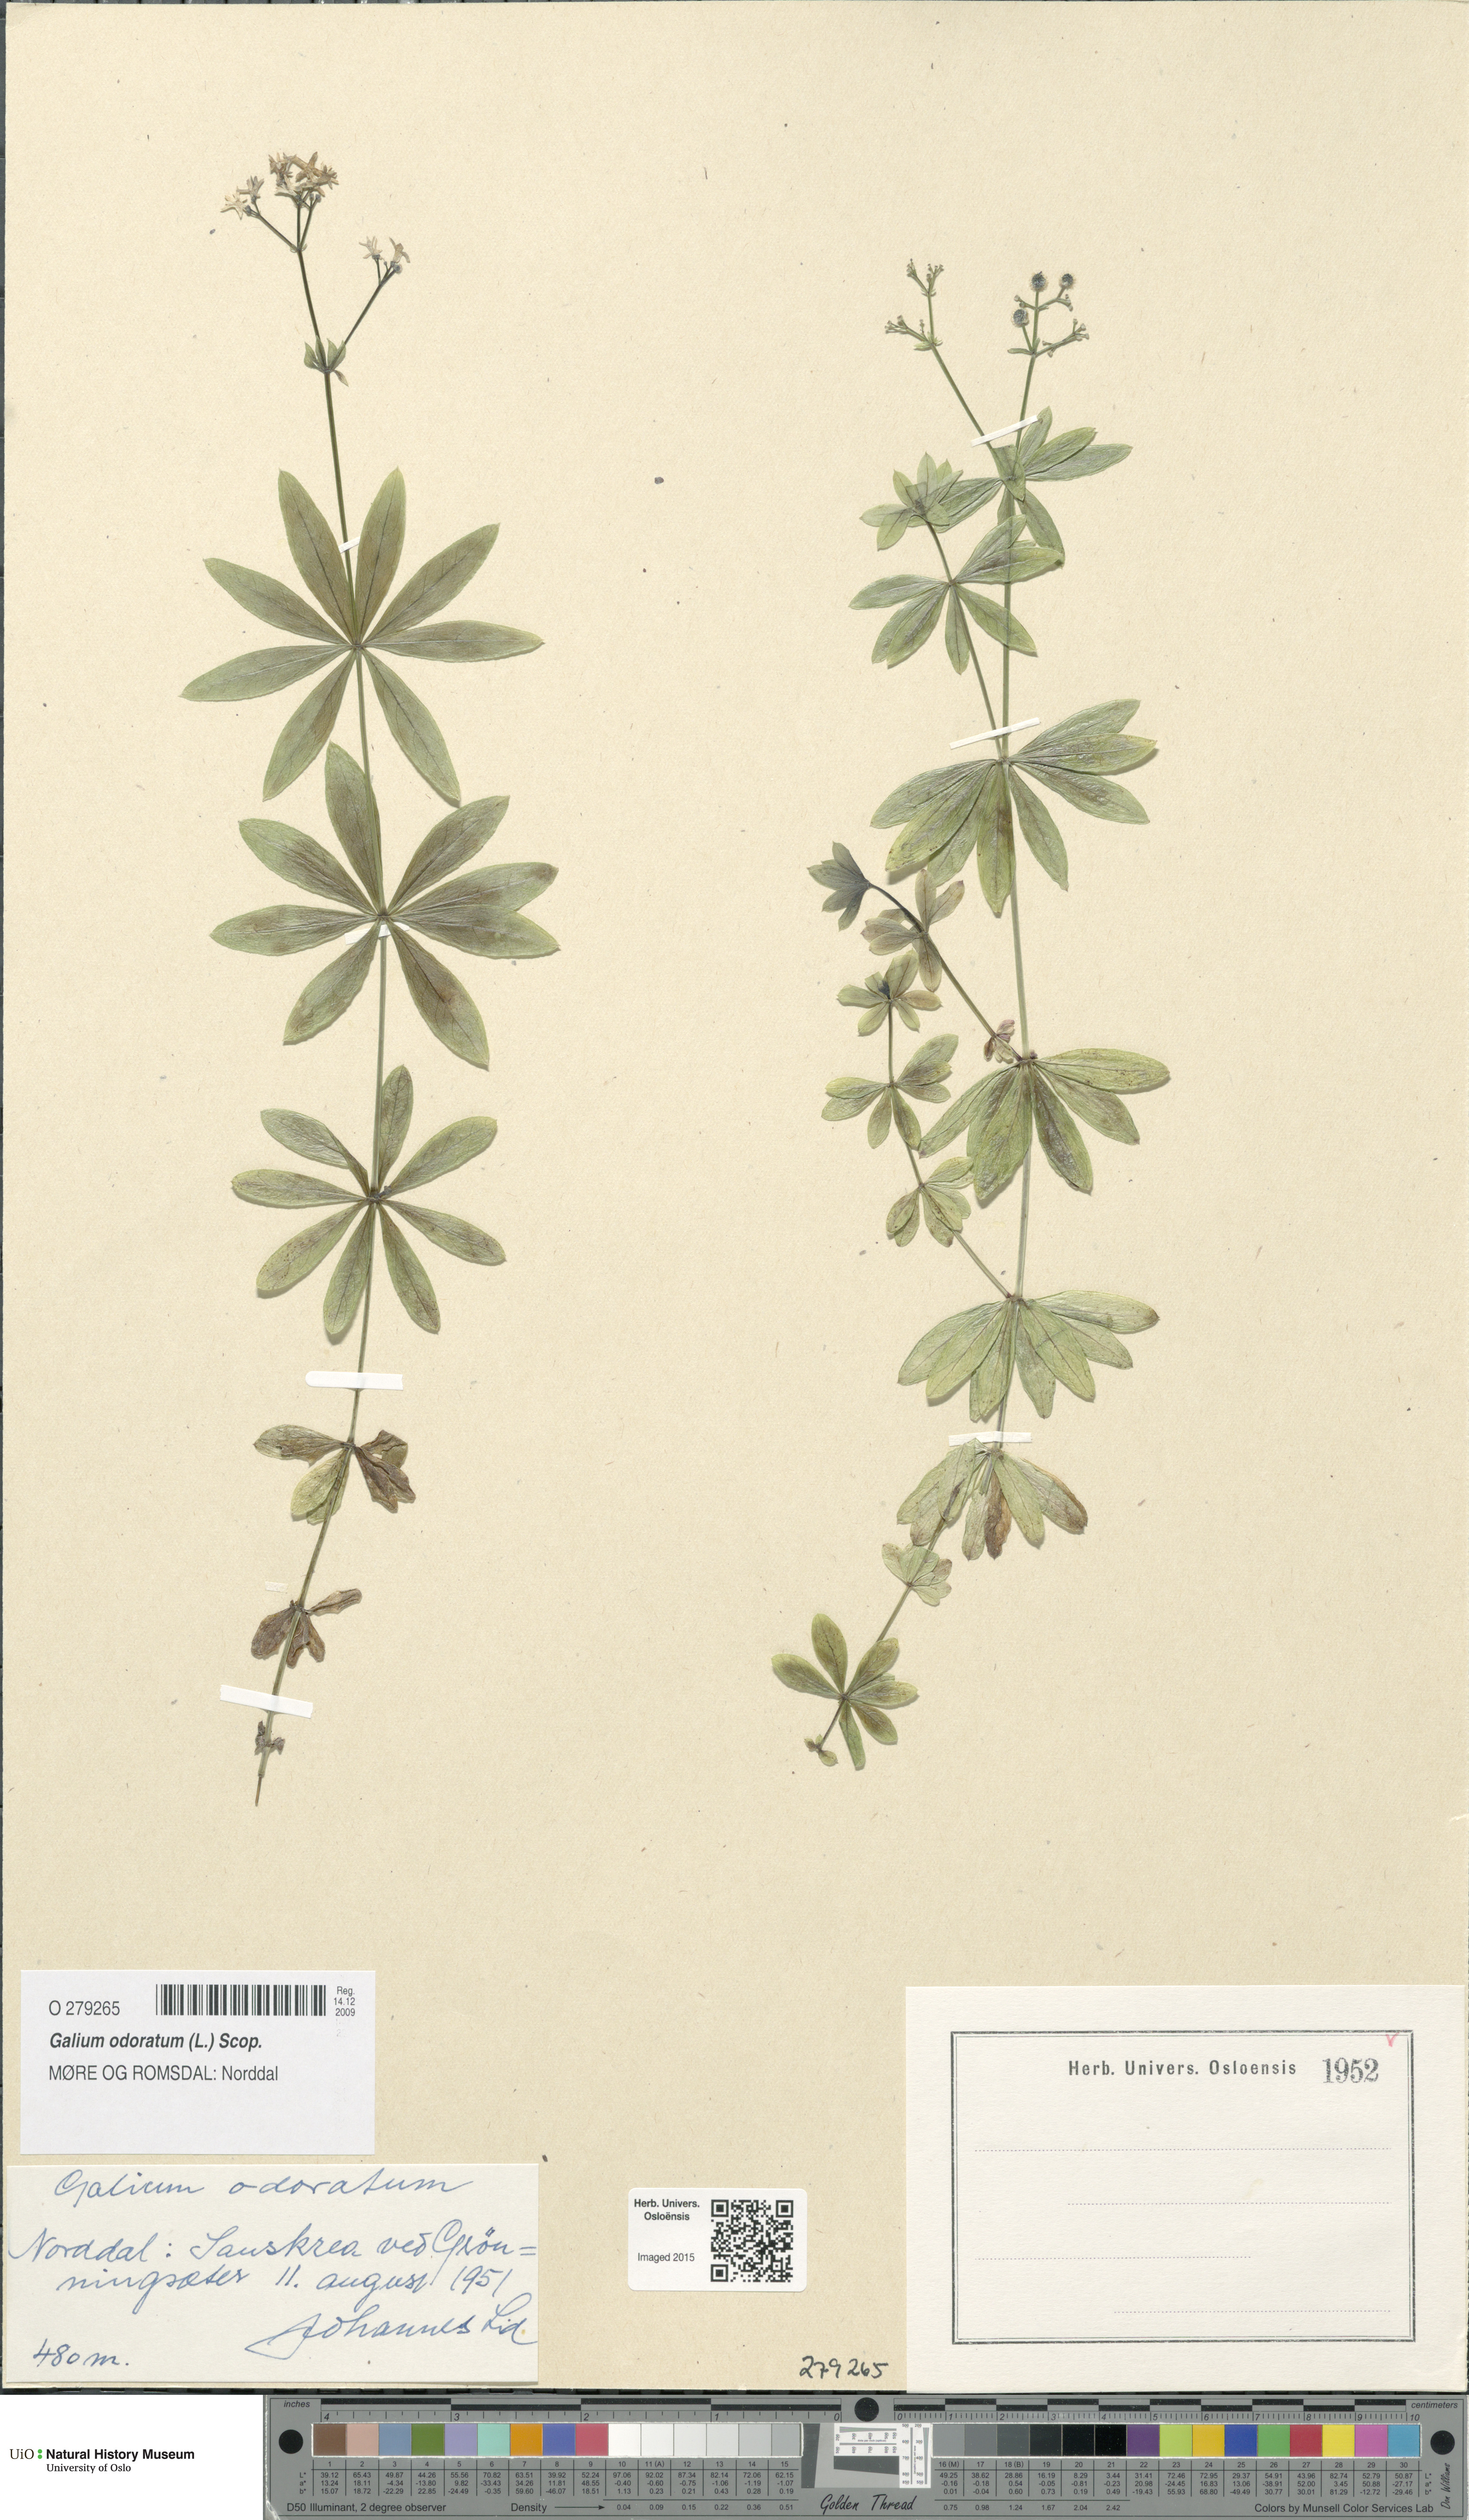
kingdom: Plantae
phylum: Tracheophyta
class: Magnoliopsida
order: Gentianales
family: Rubiaceae
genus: Galium
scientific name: Galium odoratum
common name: Sweet woodruff
